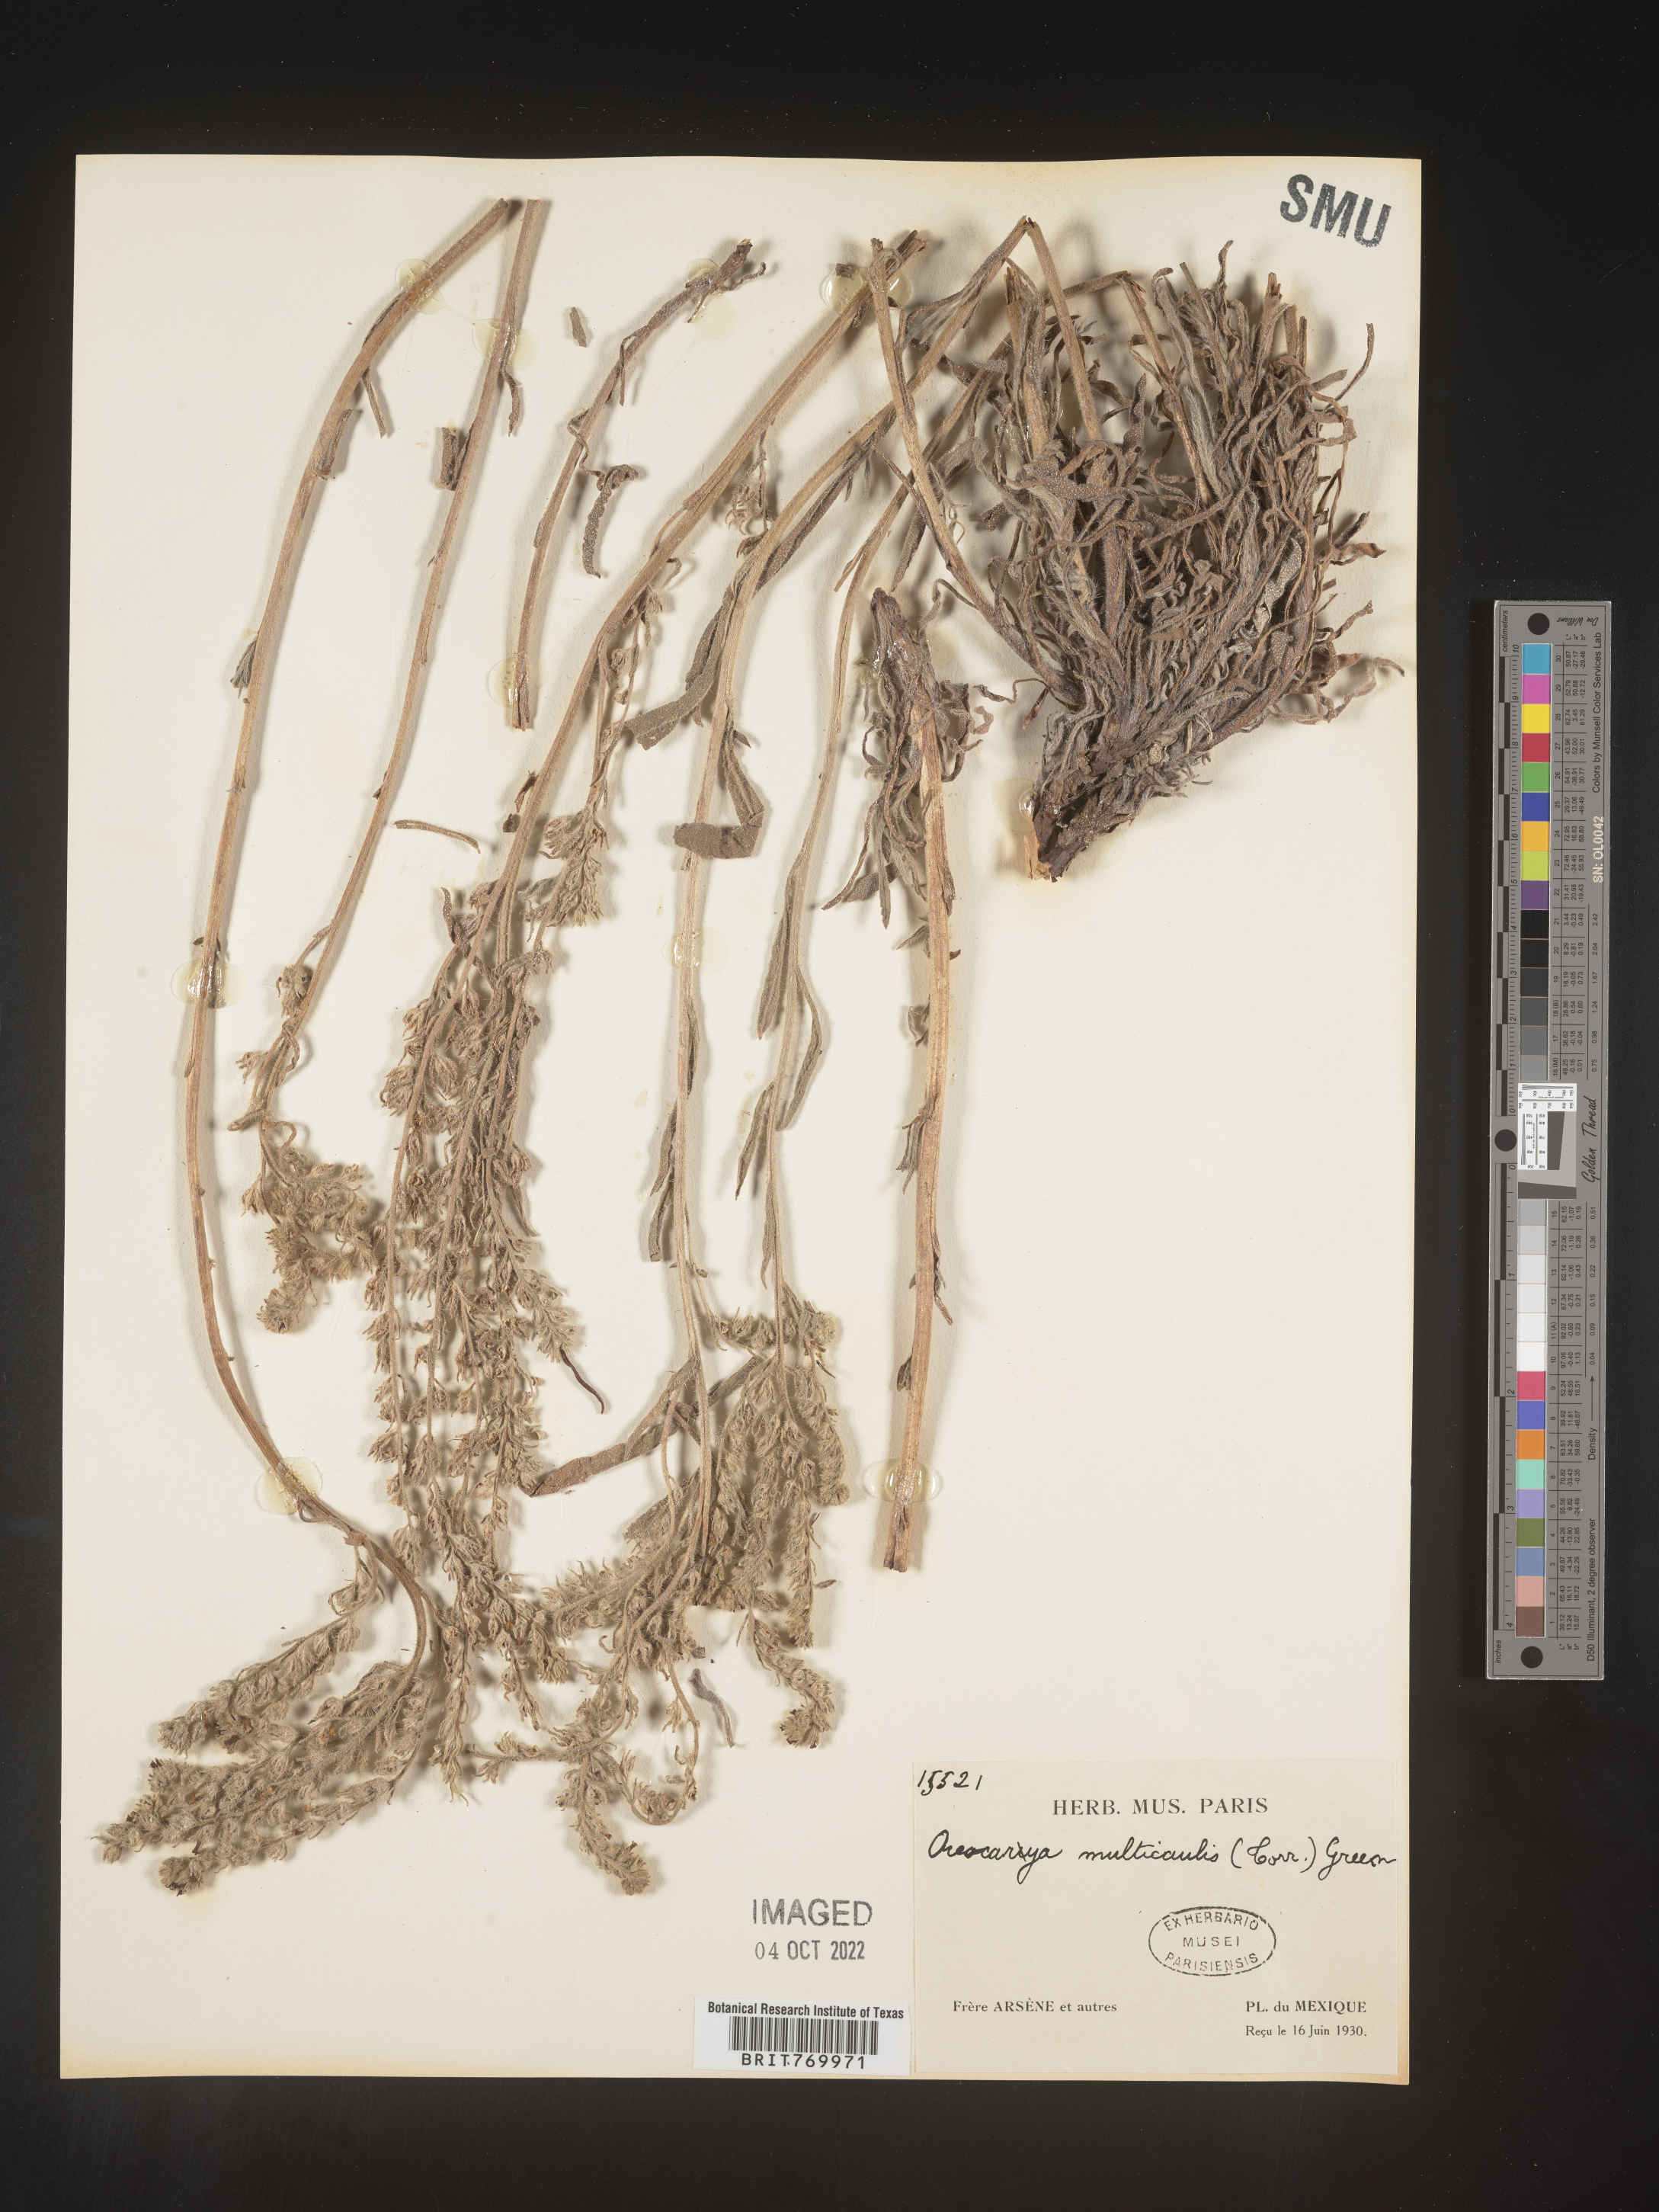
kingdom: Plantae
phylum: Tracheophyta
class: Magnoliopsida
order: Boraginales
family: Boraginaceae
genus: Oreocarya
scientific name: Oreocarya
